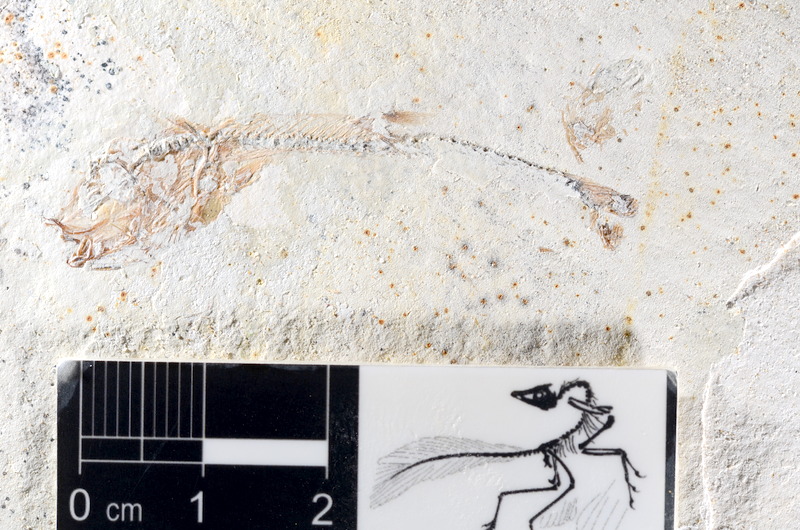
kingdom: Animalia
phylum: Chordata
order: Salmoniformes
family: Orthogonikleithridae
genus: Orthogonikleithrus
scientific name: Orthogonikleithrus hoelli
